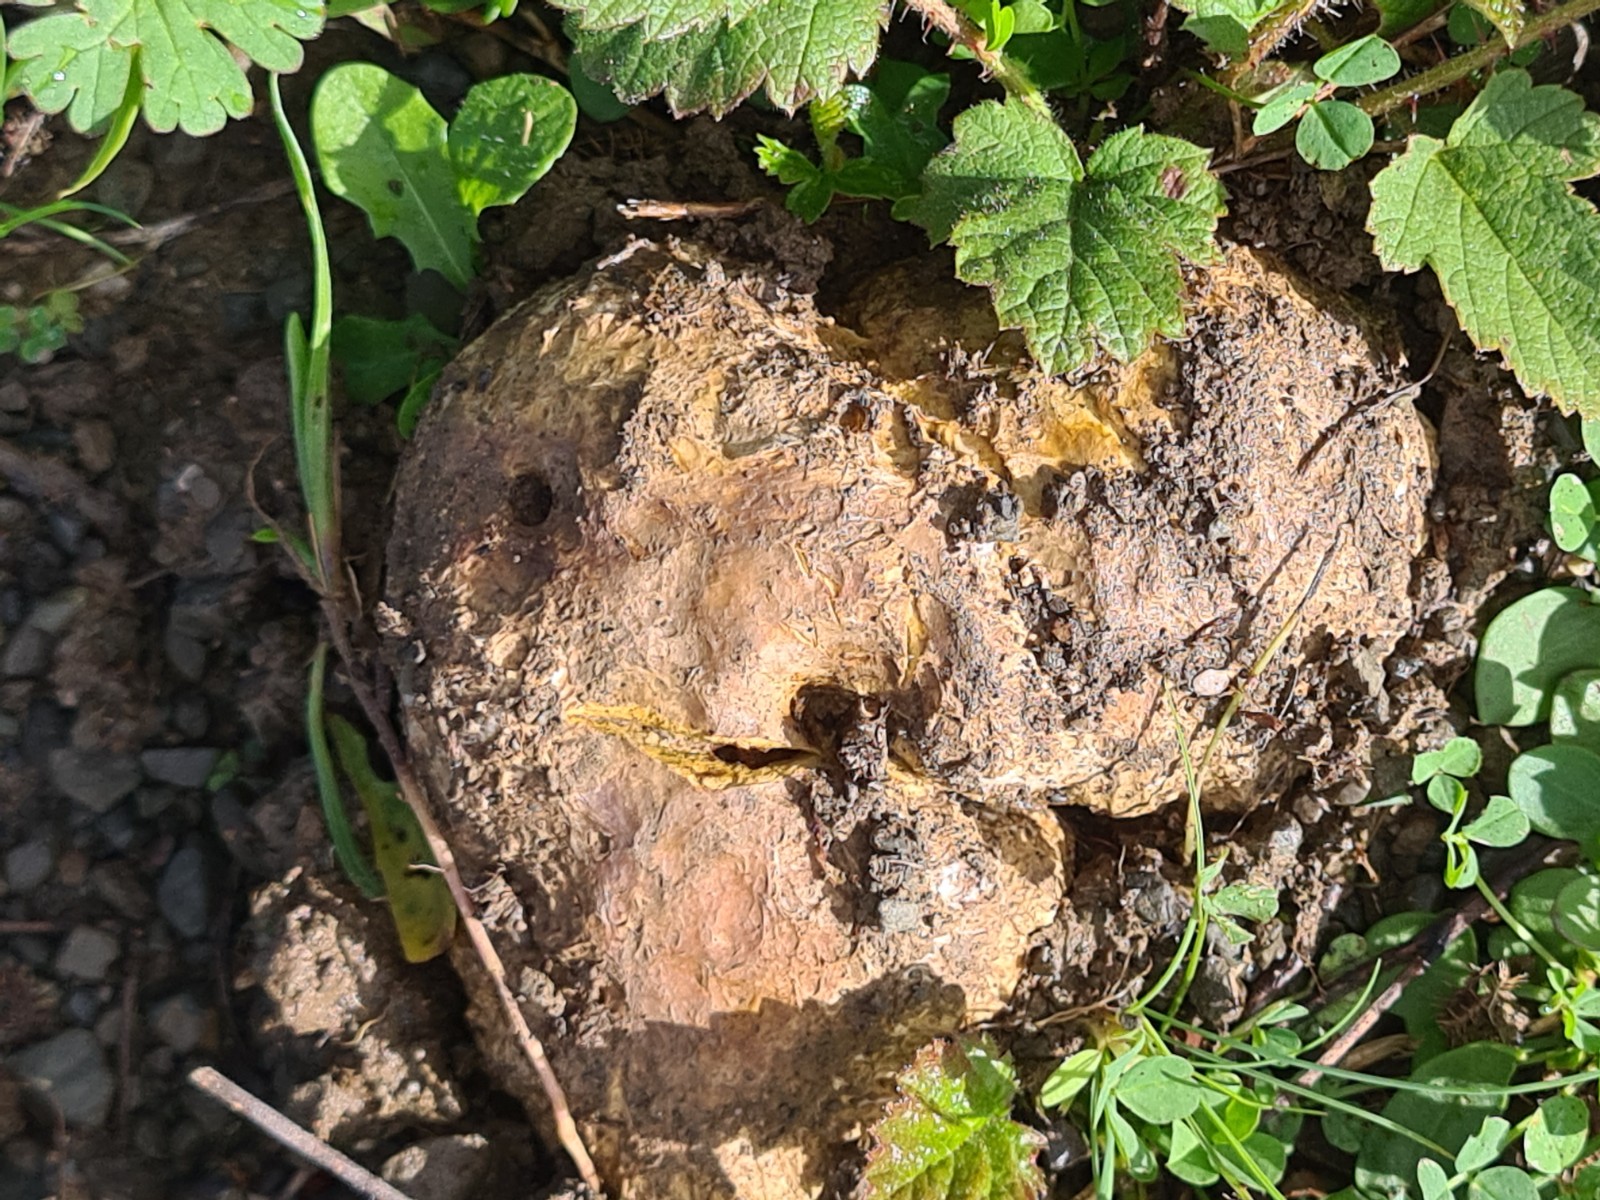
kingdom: Fungi
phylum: Basidiomycota
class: Agaricomycetes
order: Boletales
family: Sclerodermataceae
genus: Scleroderma
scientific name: Scleroderma polyrhizum
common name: Many-rooted earthball
